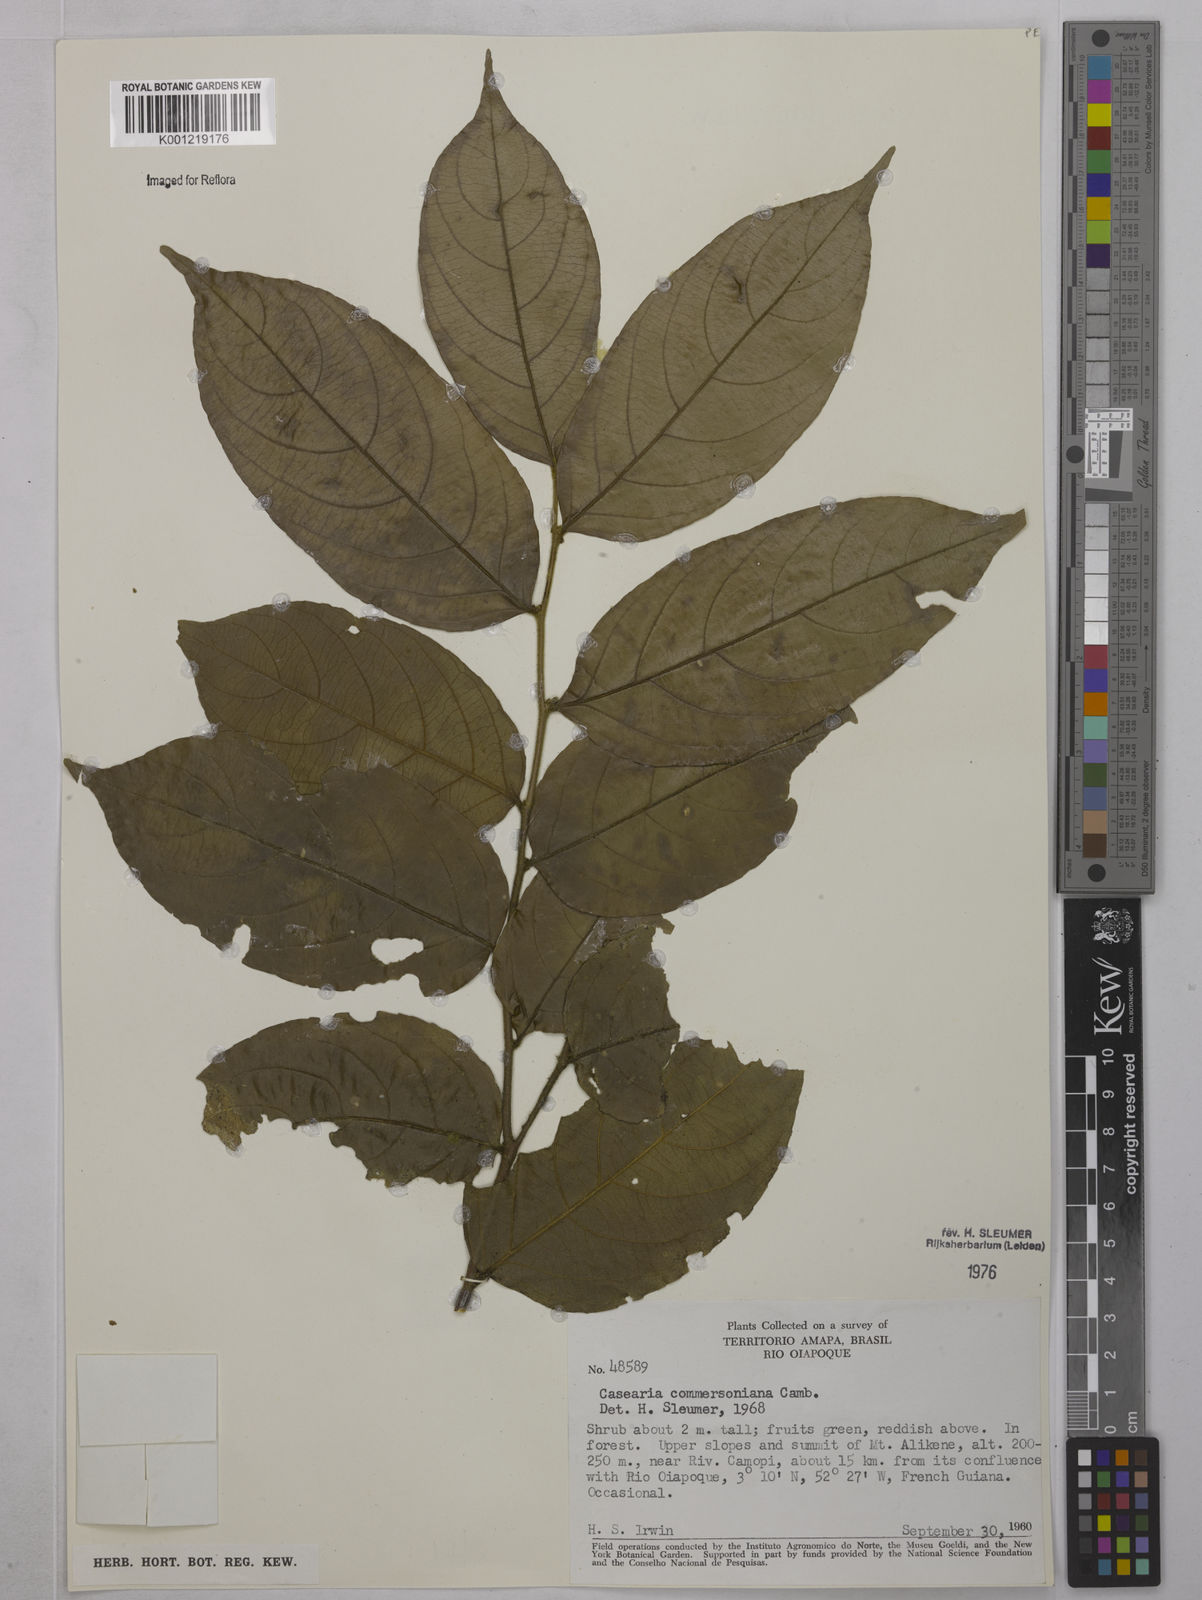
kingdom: Plantae
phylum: Tracheophyta
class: Magnoliopsida
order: Malpighiales
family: Salicaceae
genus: Piparea
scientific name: Piparea dentata
